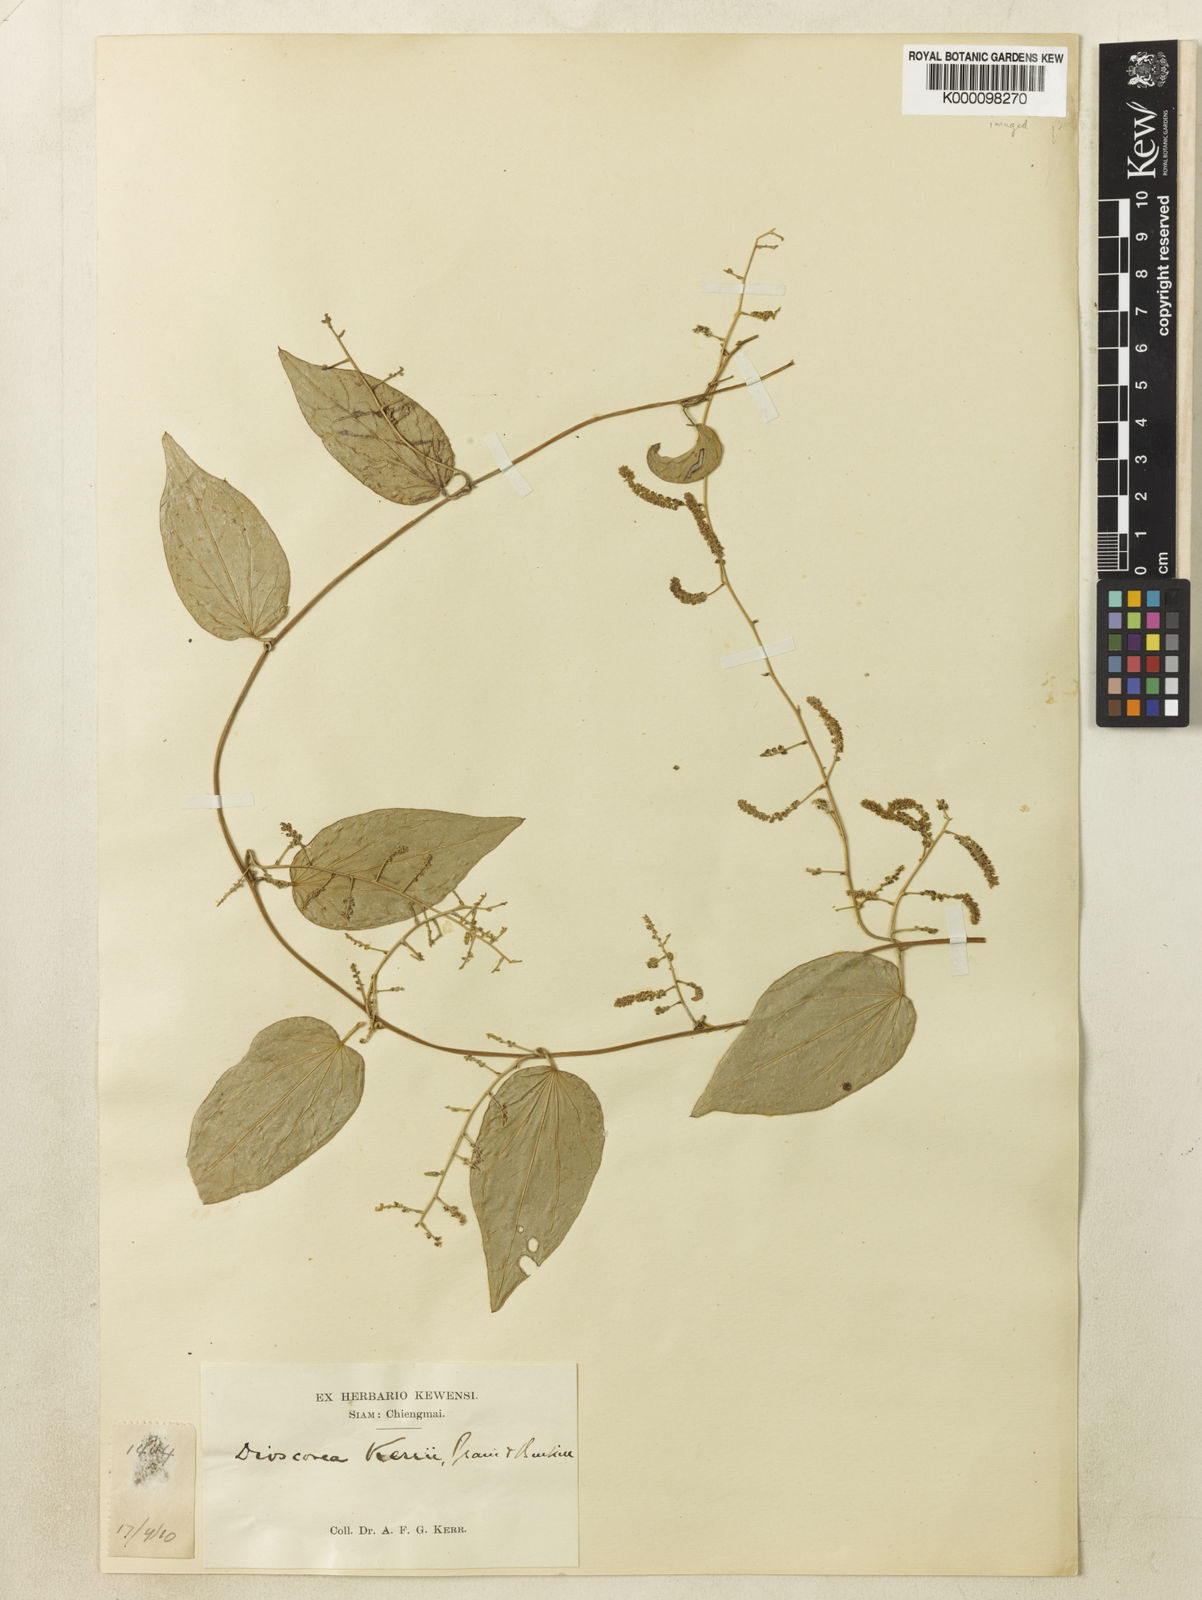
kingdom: Plantae
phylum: Tracheophyta
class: Liliopsida
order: Dioscoreales
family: Dioscoreaceae
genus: Dioscorea
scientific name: Dioscorea kerrii
